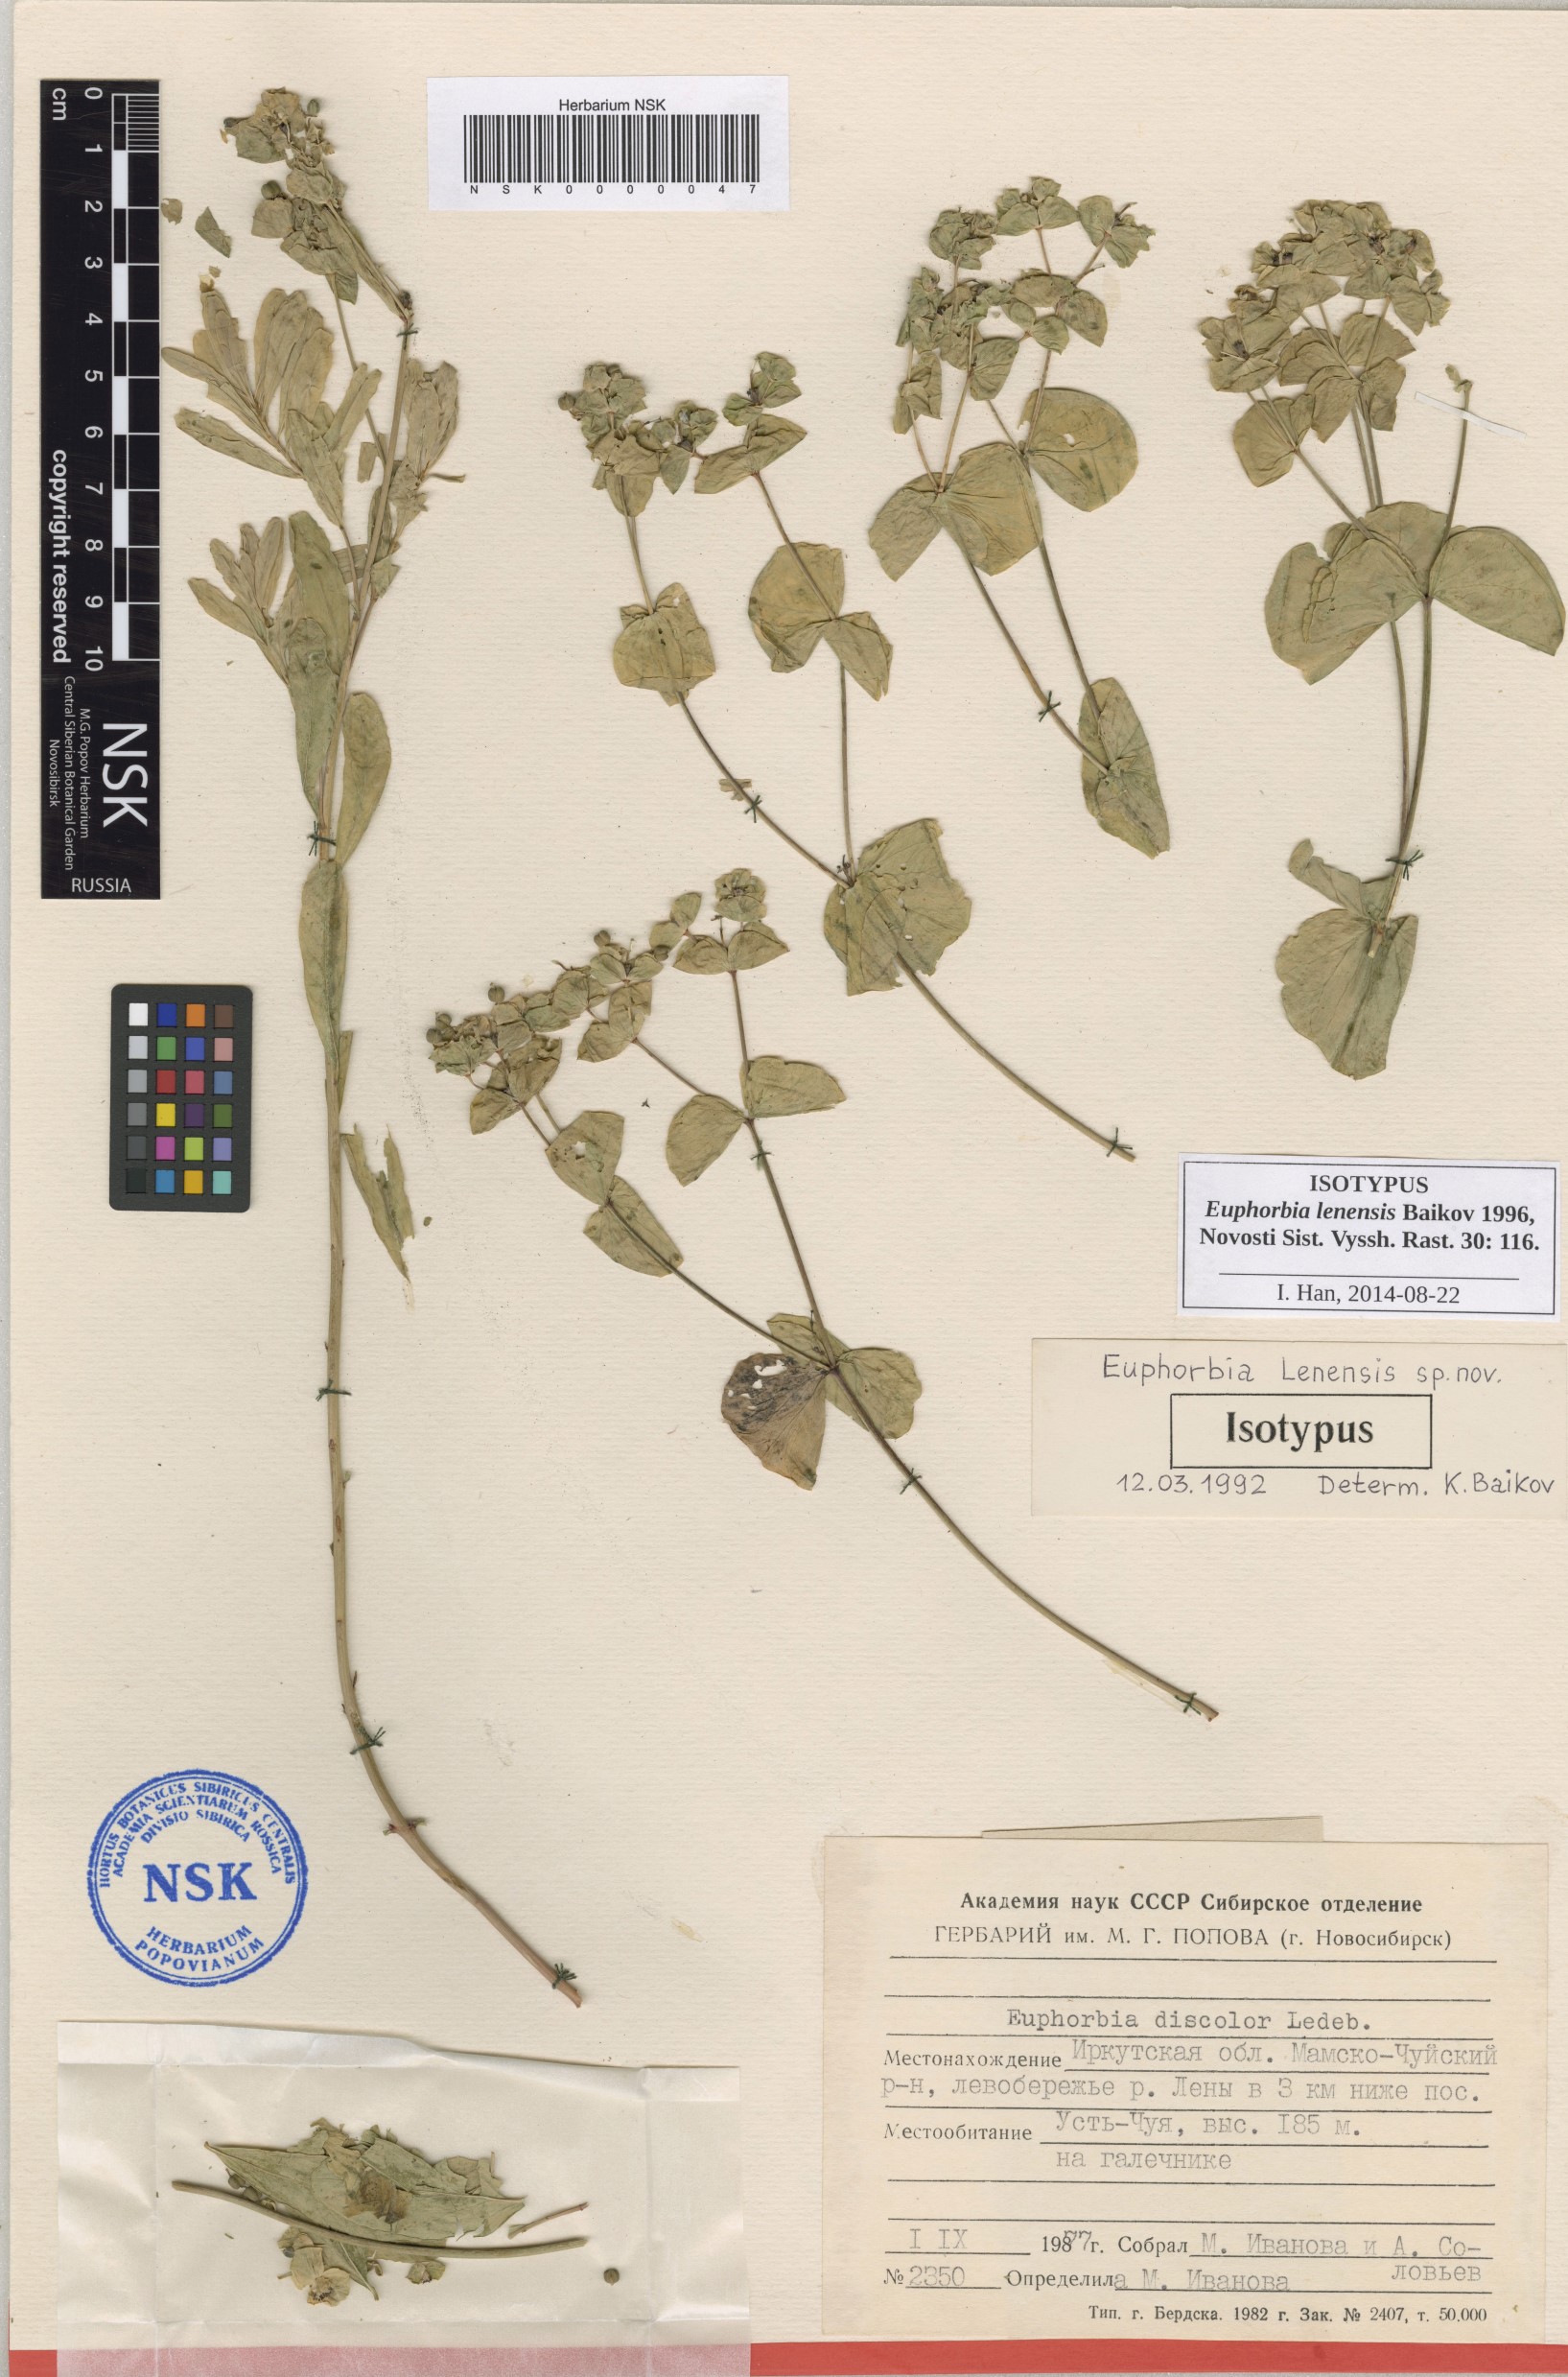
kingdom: Plantae
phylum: Tracheophyta
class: Magnoliopsida
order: Malpighiales
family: Euphorbiaceae
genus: Euphorbia
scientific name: Euphorbia lenensis
